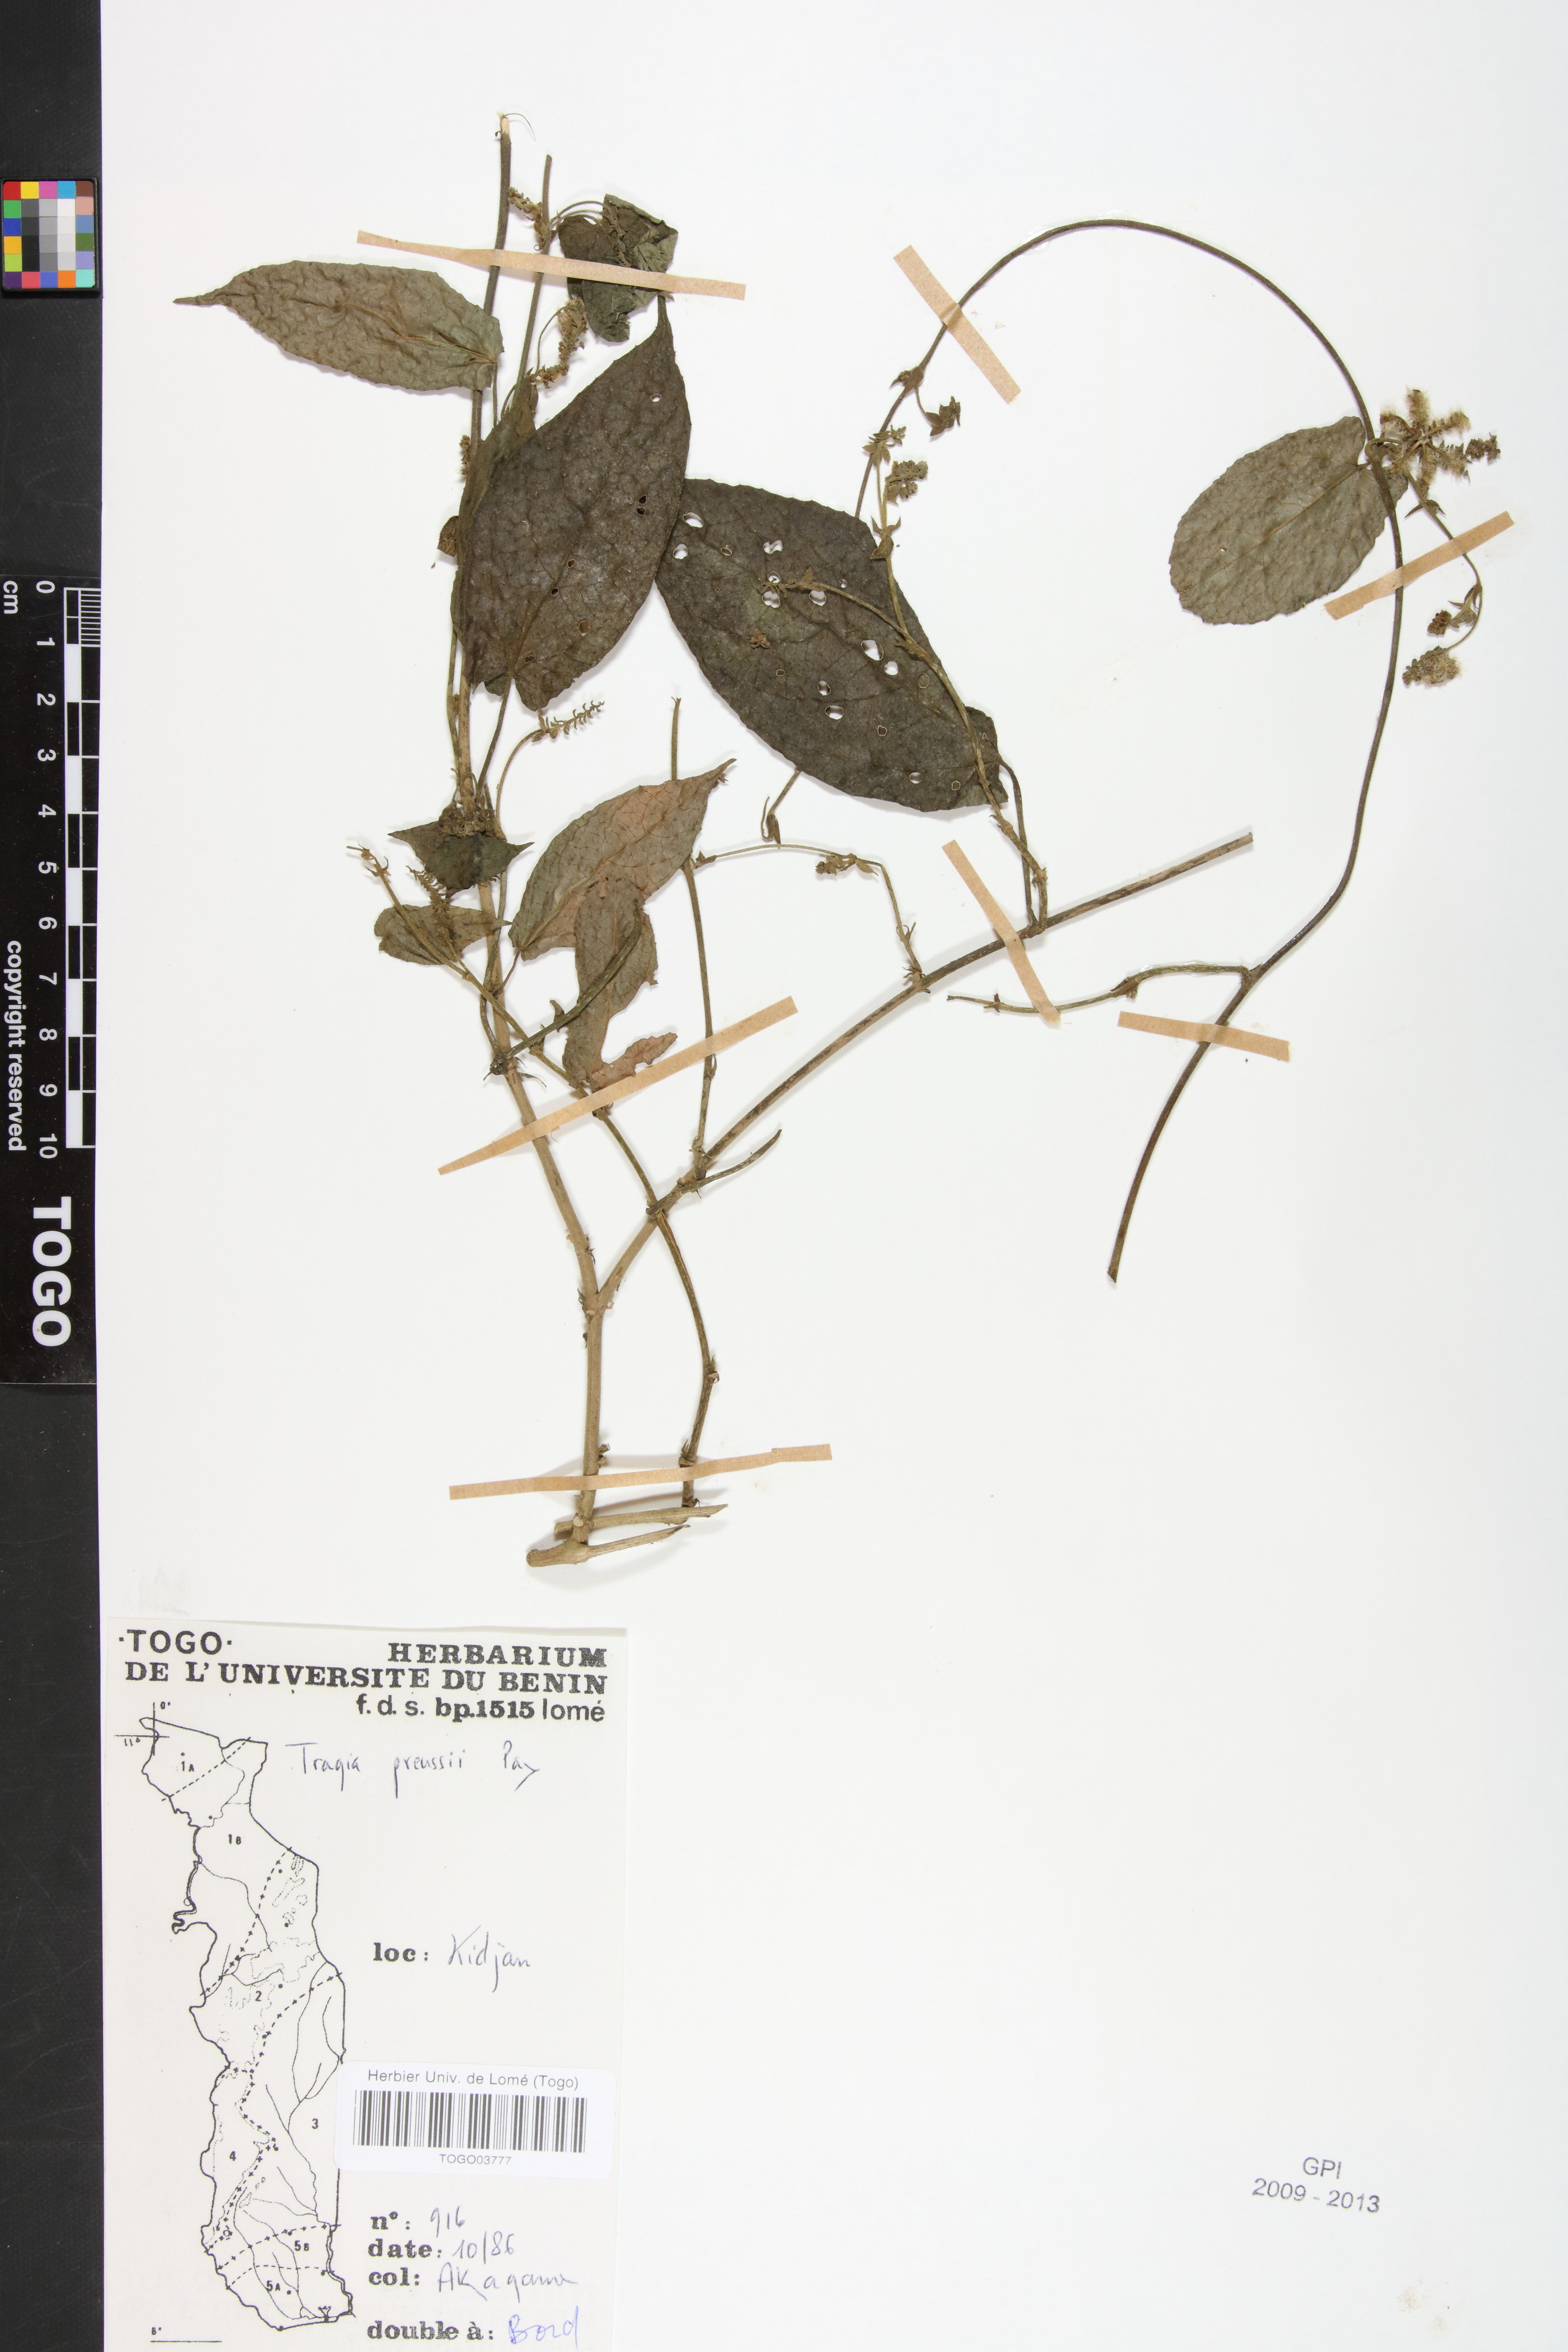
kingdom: Plantae
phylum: Tracheophyta
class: Magnoliopsida
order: Malpighiales
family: Euphorbiaceae
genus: Tragia
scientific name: Tragia preussii
